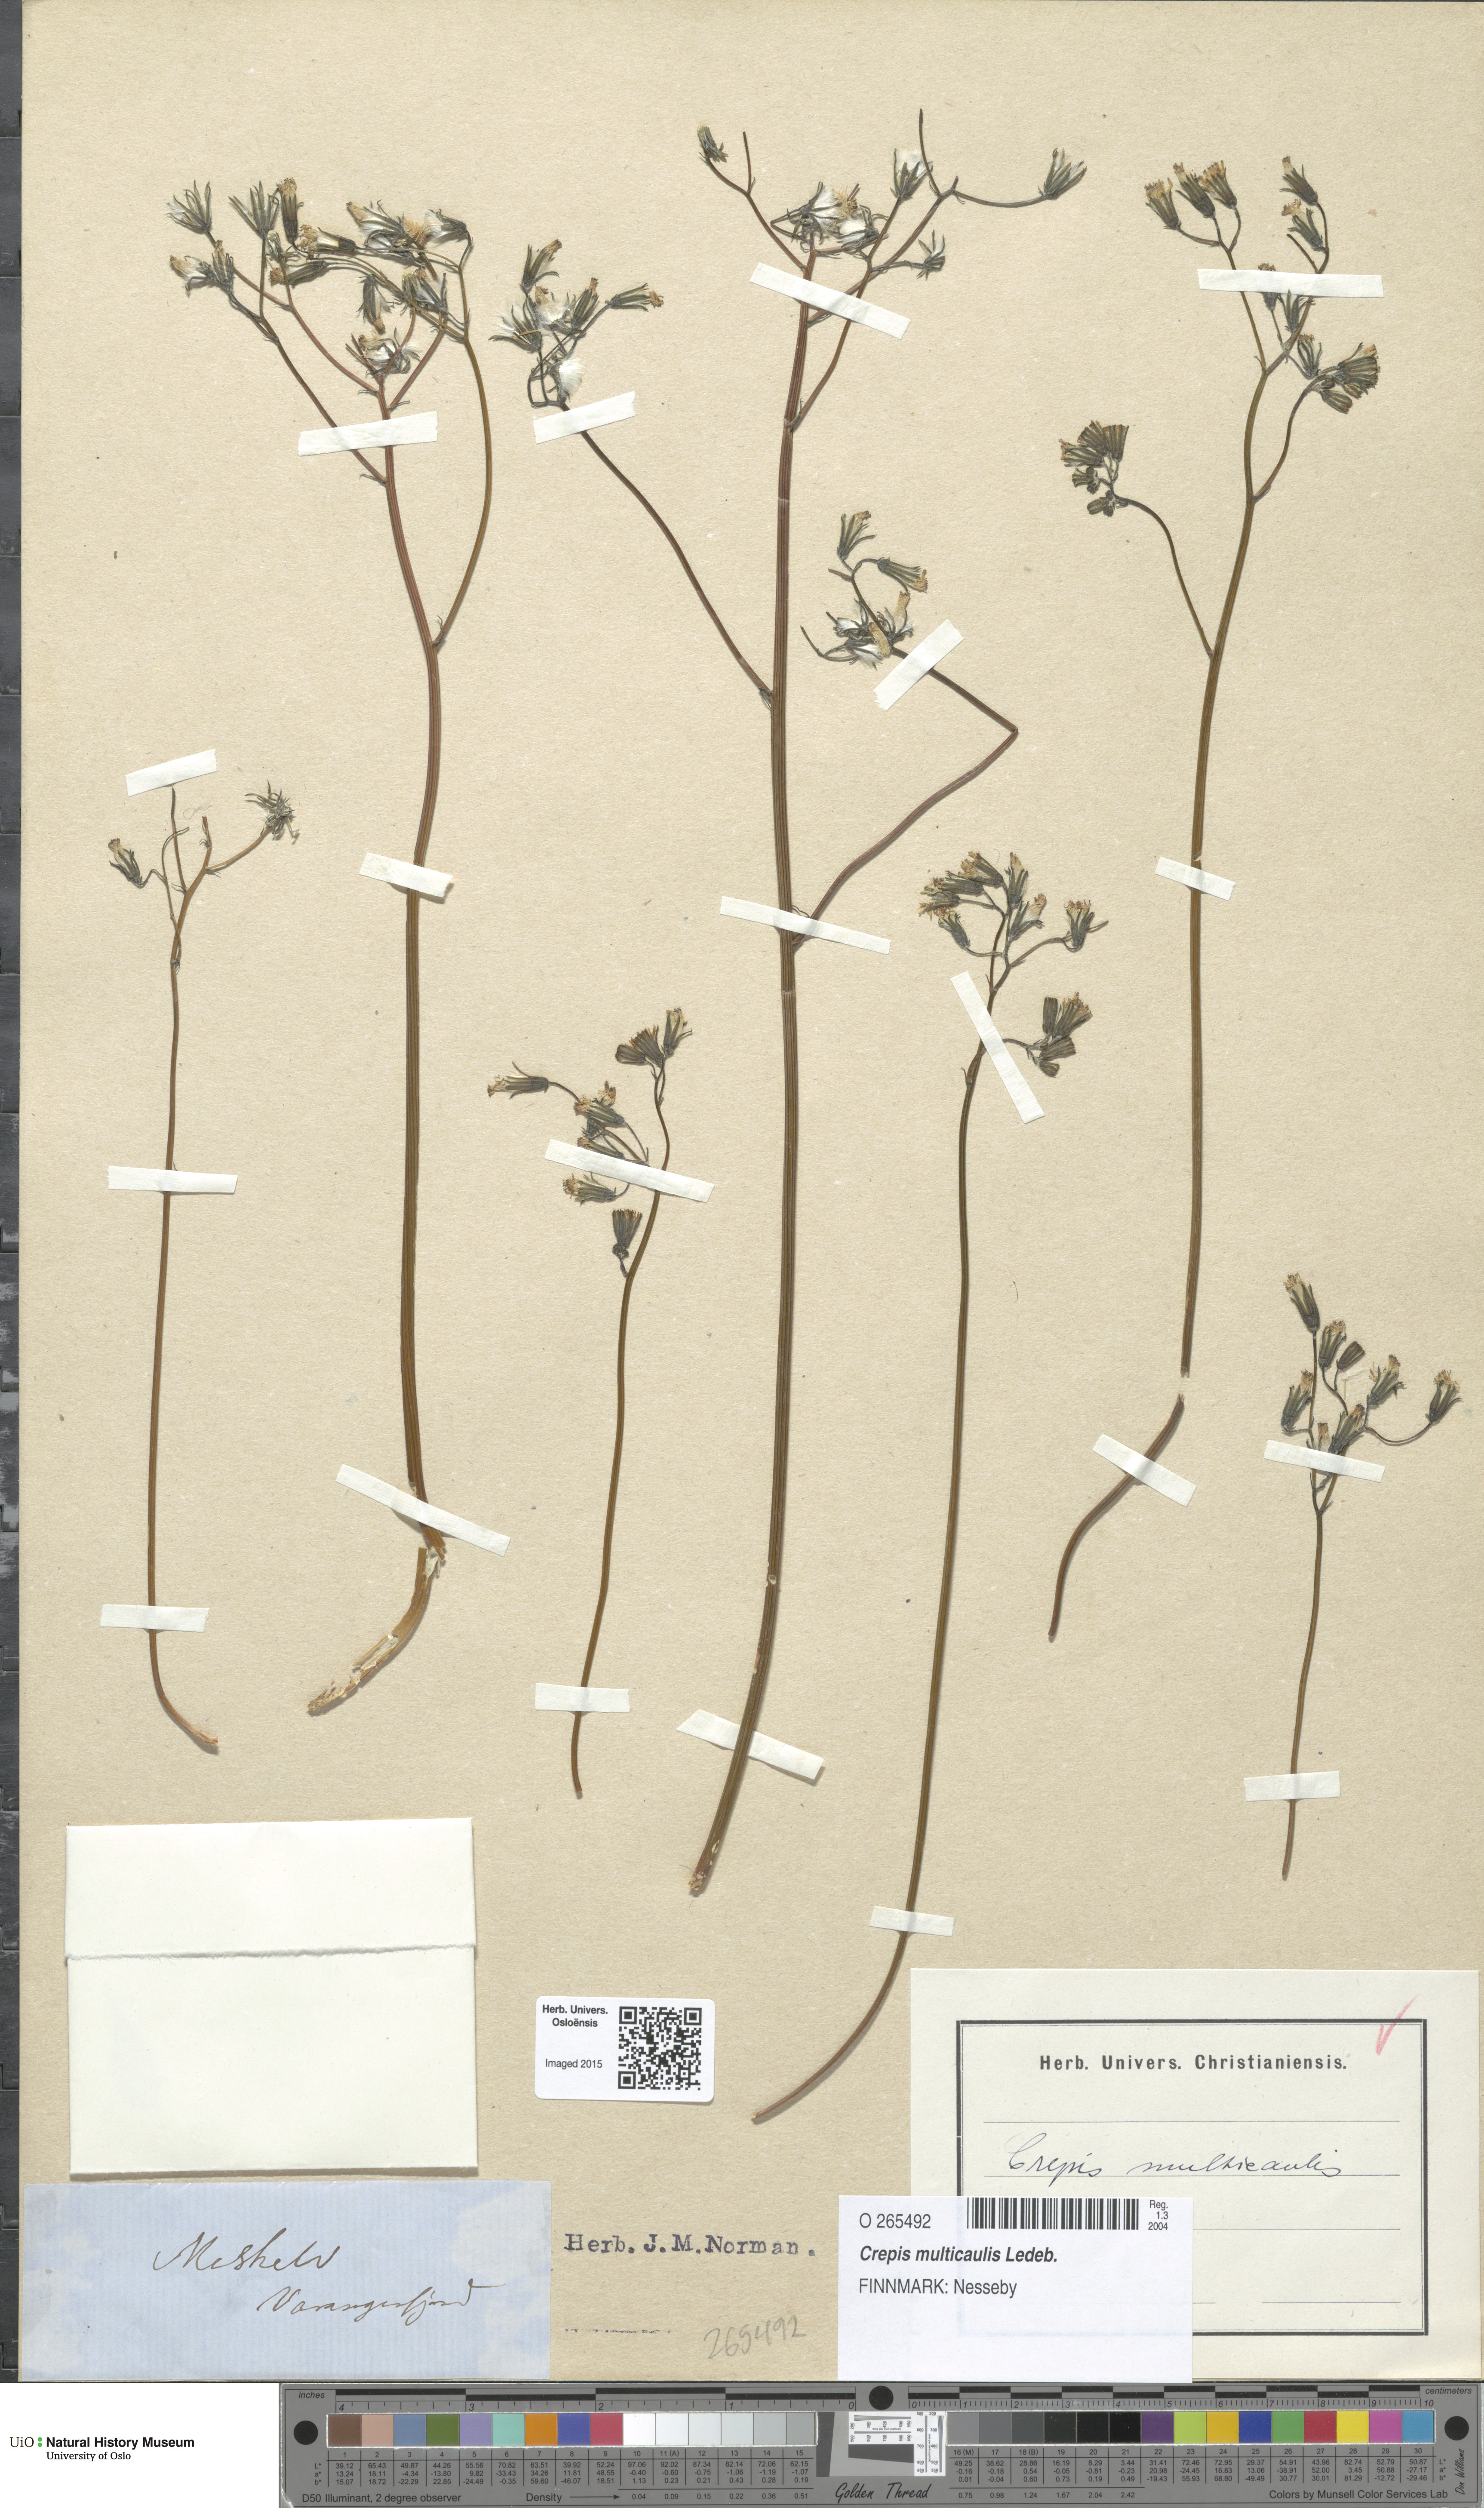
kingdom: Plantae
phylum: Tracheophyta
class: Magnoliopsida
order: Asterales
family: Asteraceae
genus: Crepis
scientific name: Crepis multicaulis
